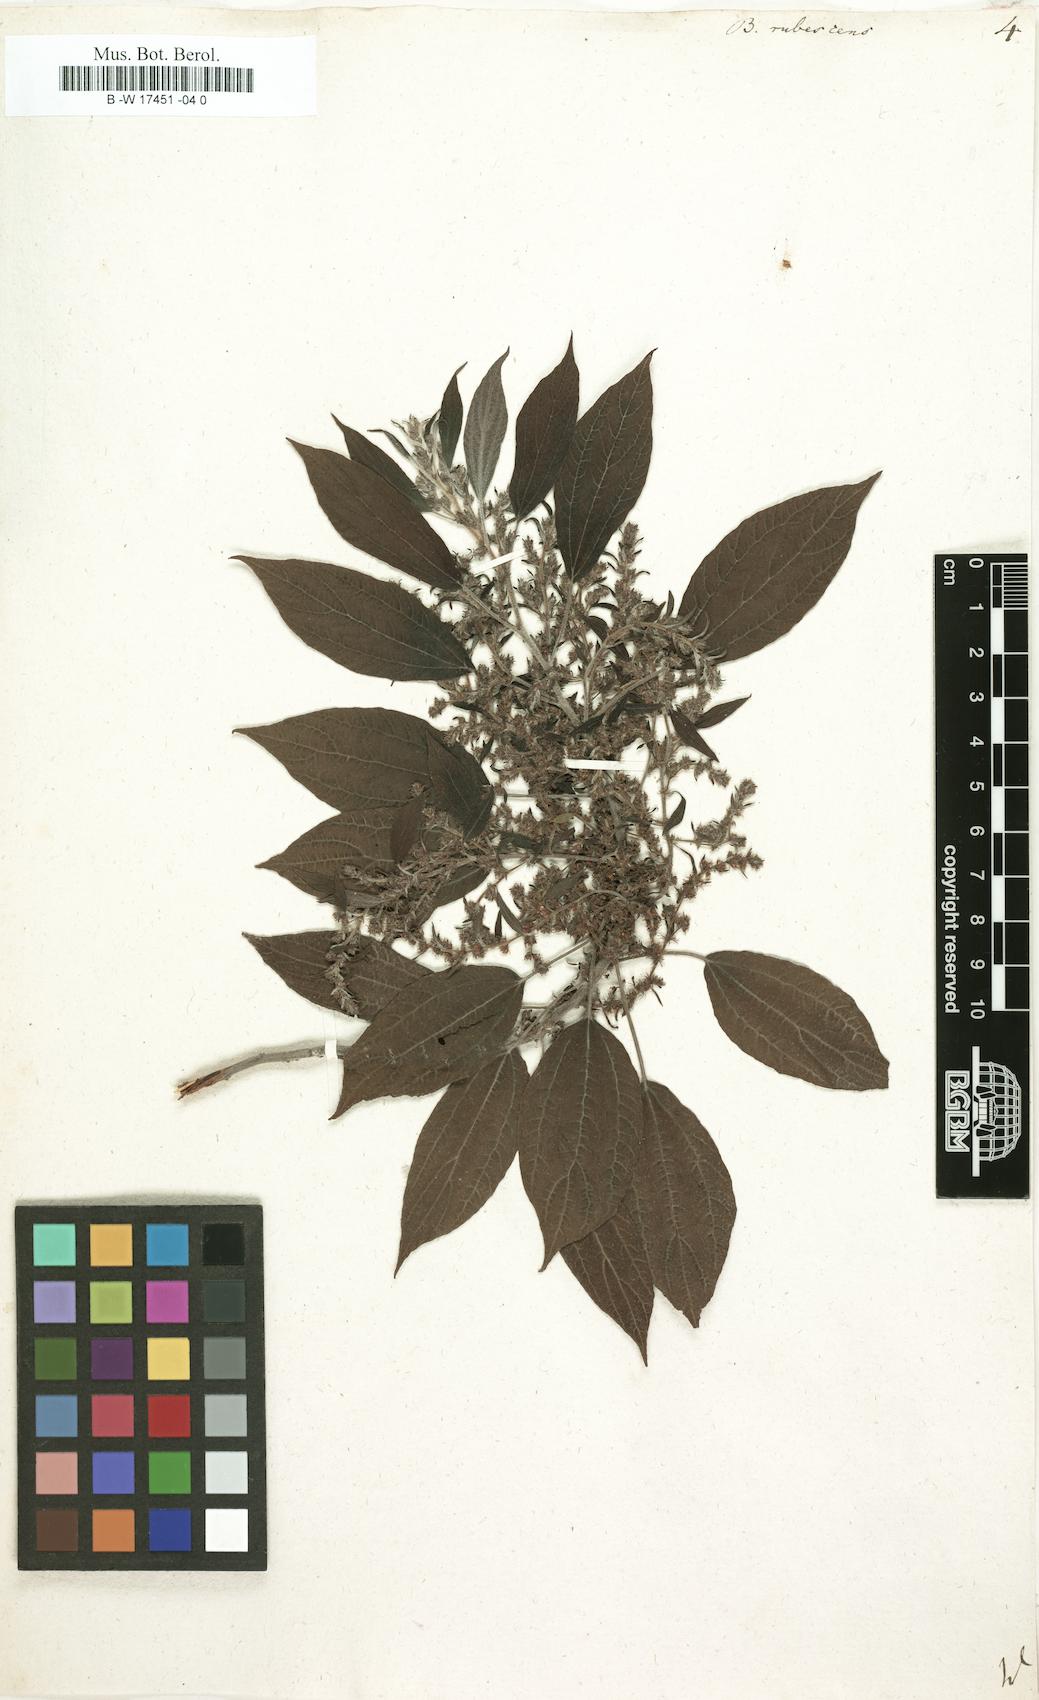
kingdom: Plantae
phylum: Tracheophyta
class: Magnoliopsida
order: Rosales
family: Urticaceae
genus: Gesnouinia
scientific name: Gesnouinia arborea
